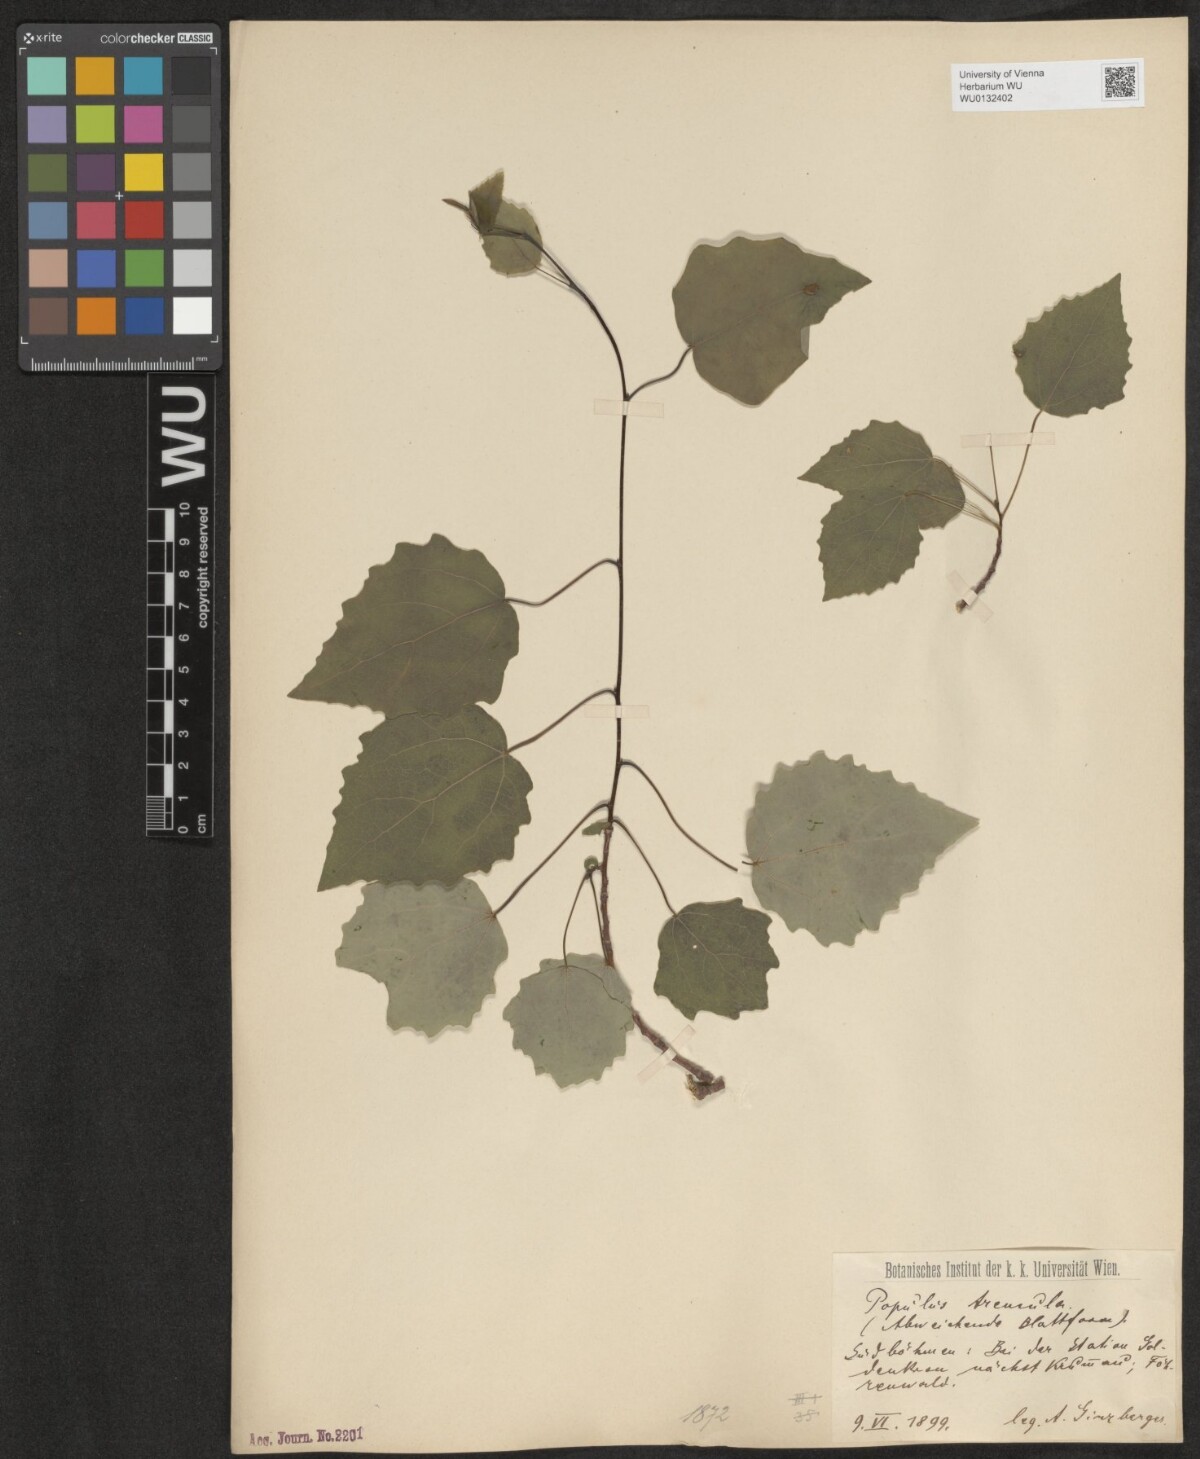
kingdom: Plantae
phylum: Tracheophyta
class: Magnoliopsida
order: Malpighiales
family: Salicaceae
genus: Populus
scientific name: Populus tremula
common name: European aspen
